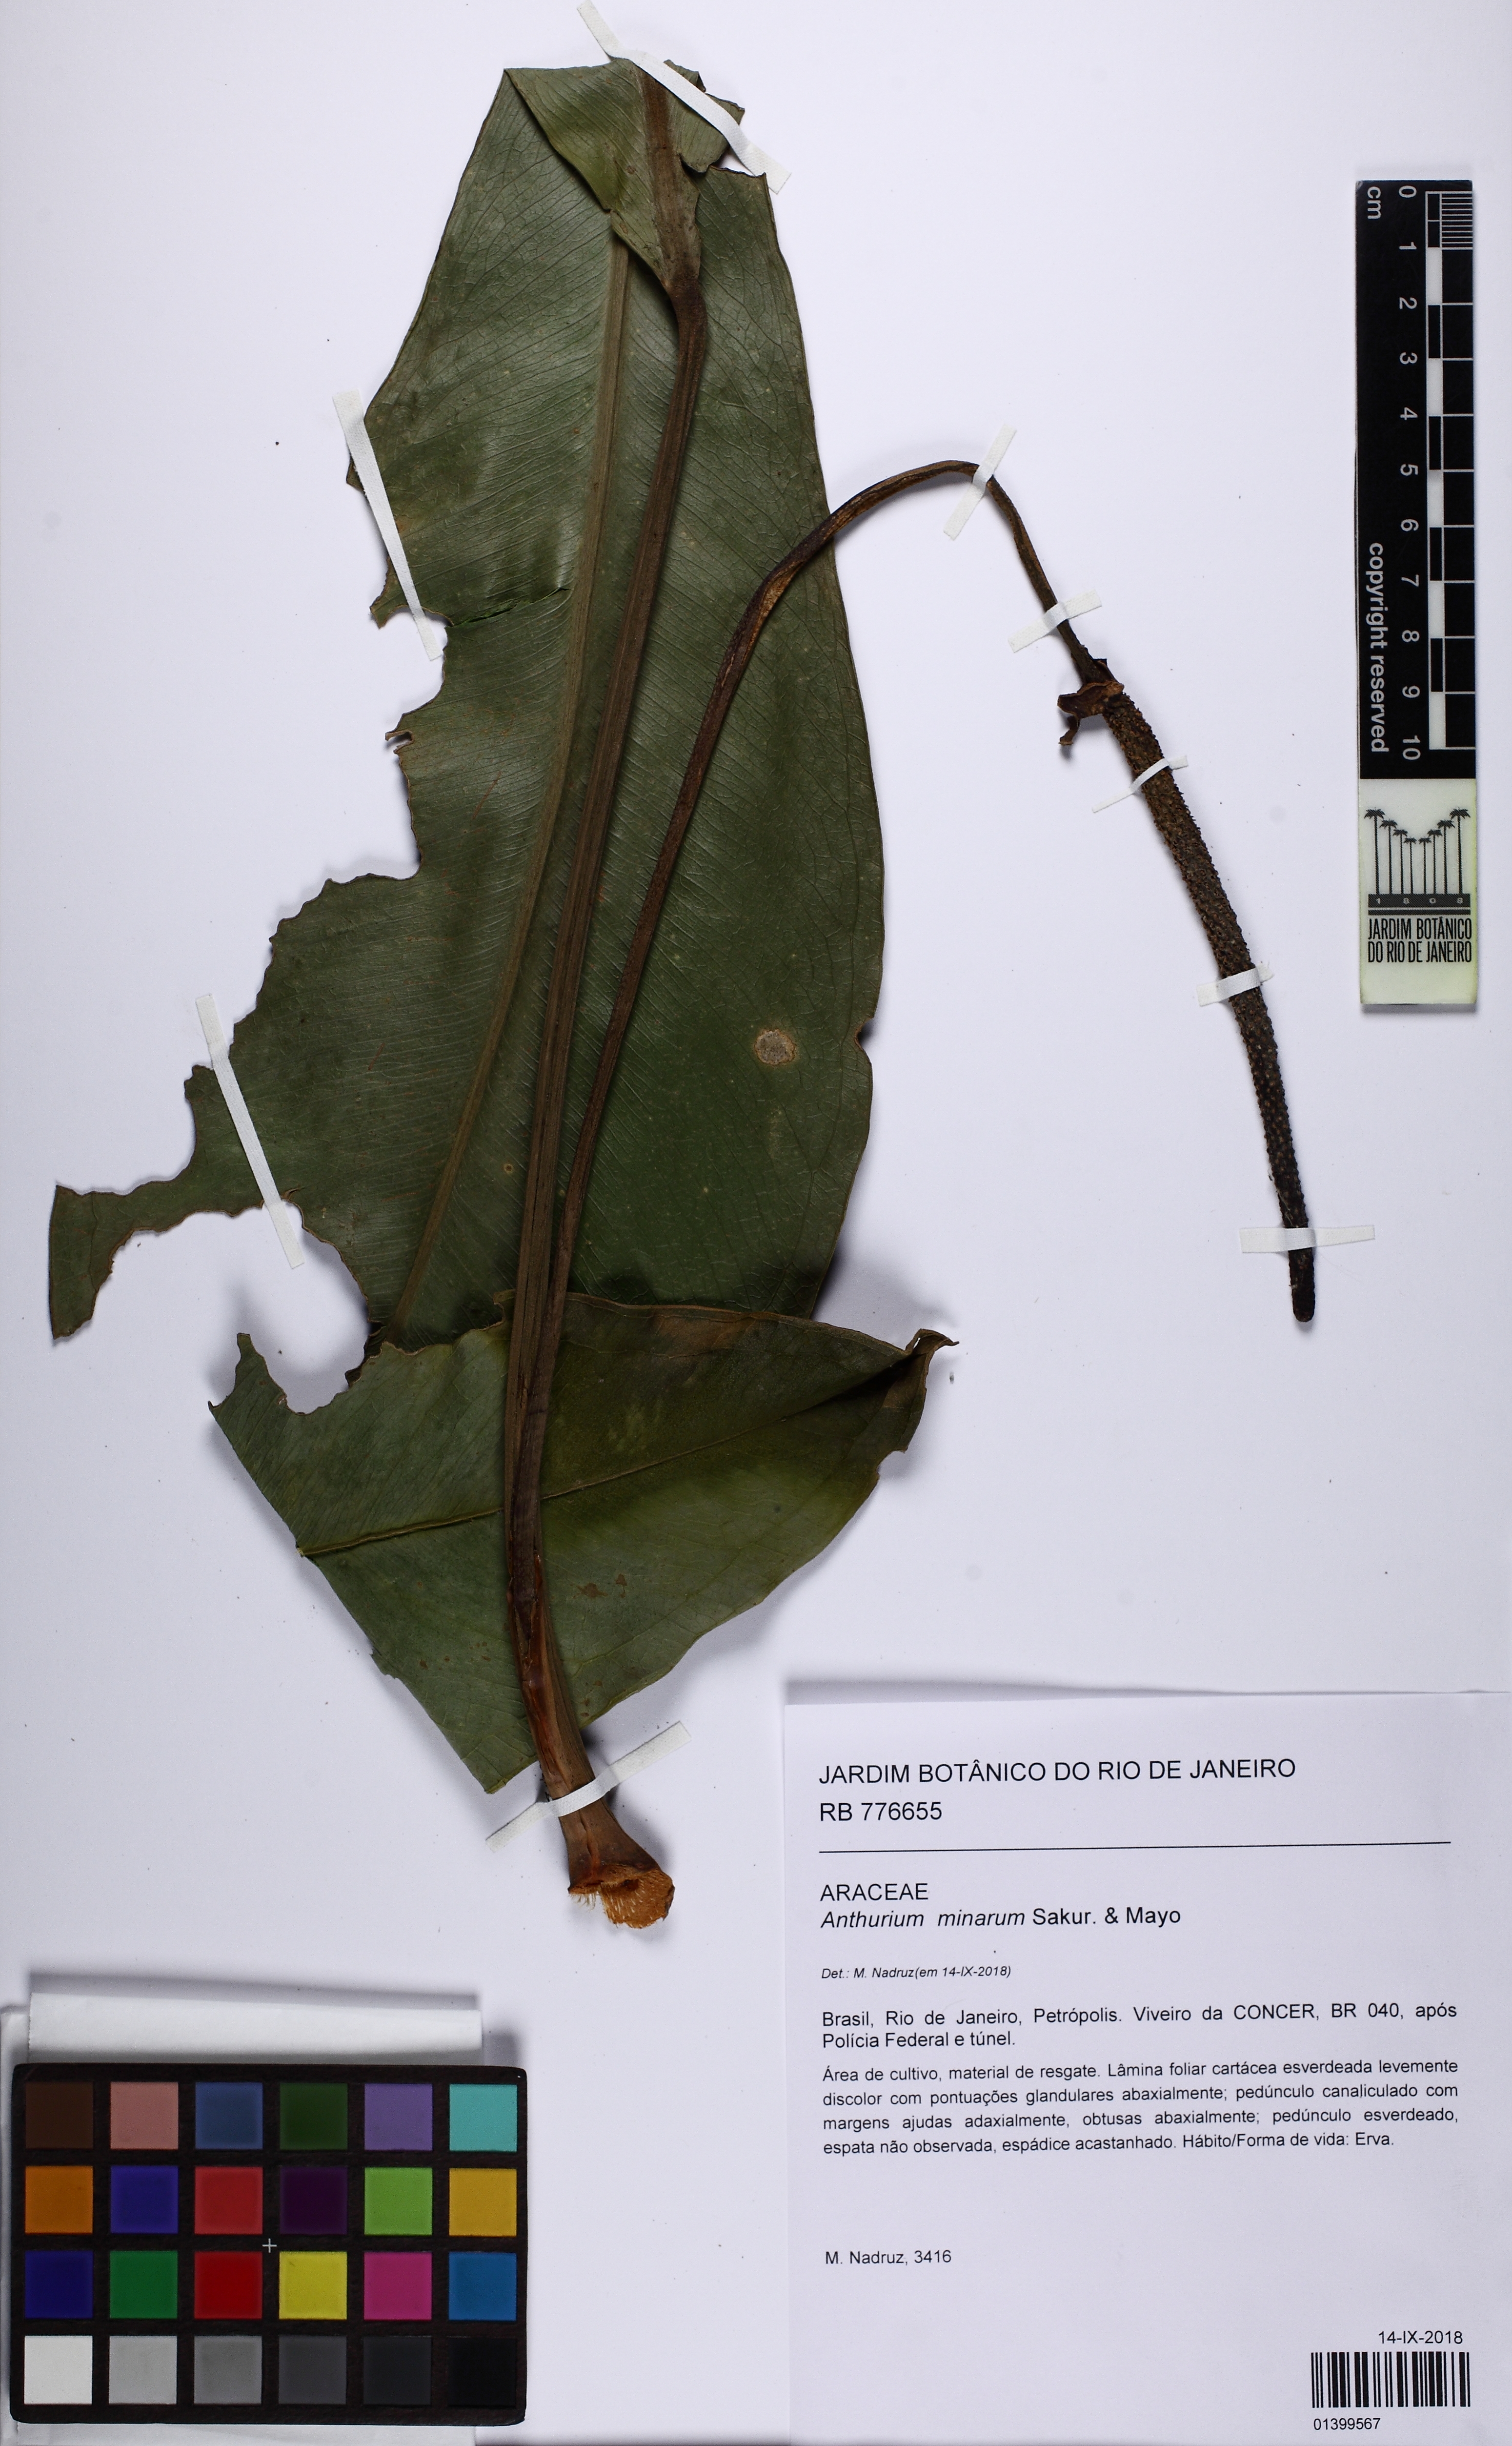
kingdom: Plantae
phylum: Tracheophyta
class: Liliopsida
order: Alismatales
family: Araceae
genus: Anthurium
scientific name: Anthurium minarum
